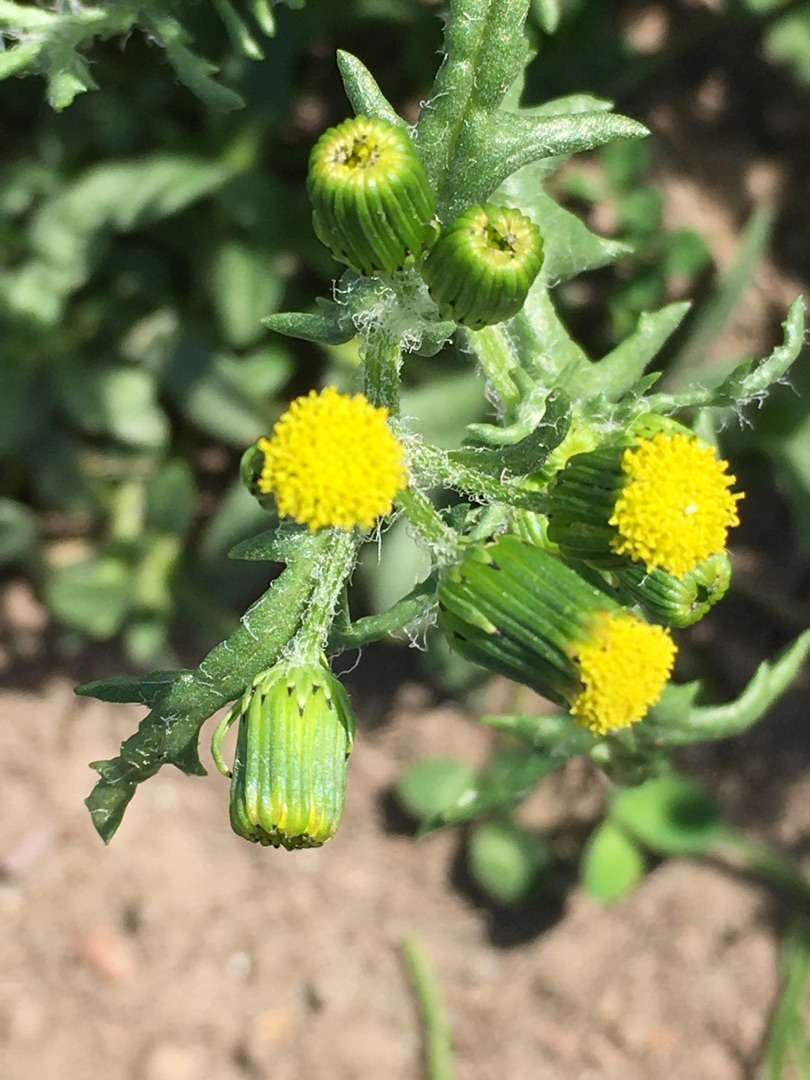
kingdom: Plantae
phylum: Tracheophyta
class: Magnoliopsida
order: Asterales
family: Asteraceae
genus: Senecio
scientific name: Senecio vulgaris
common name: Almindelig brandbæger
